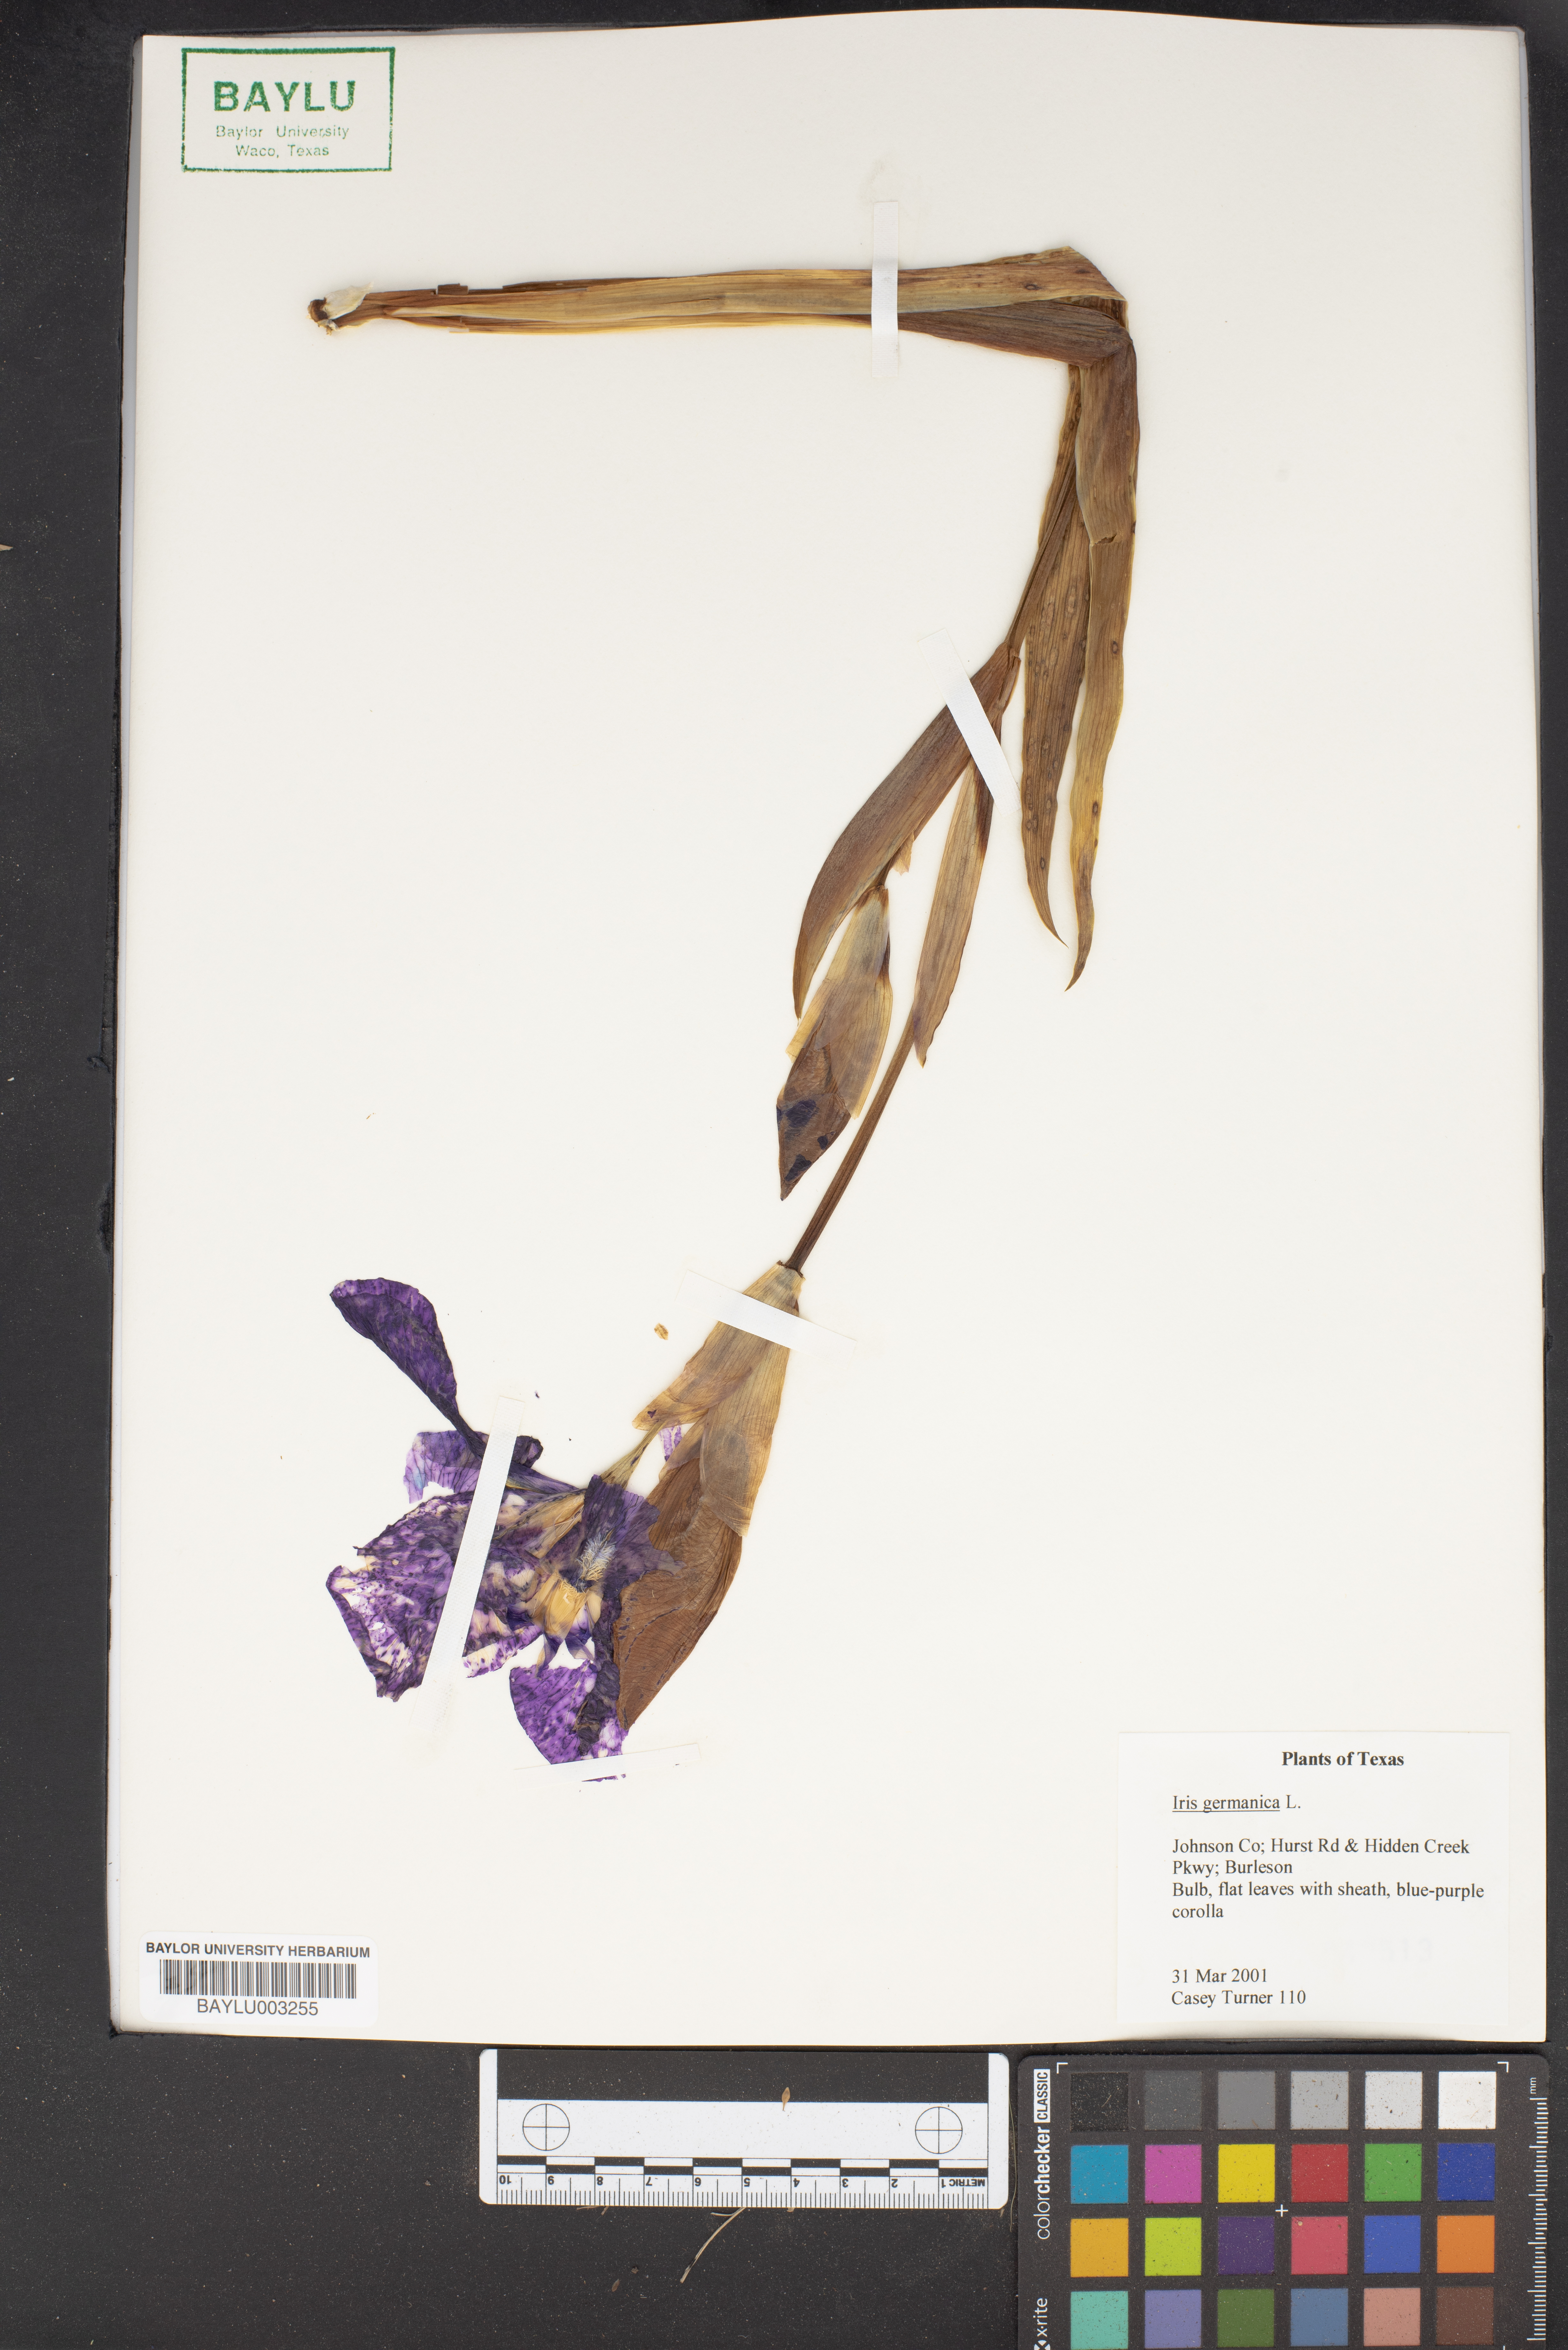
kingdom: Plantae
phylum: Tracheophyta
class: Liliopsida
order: Asparagales
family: Iridaceae
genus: Iris
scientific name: Iris germanica
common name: German iris
